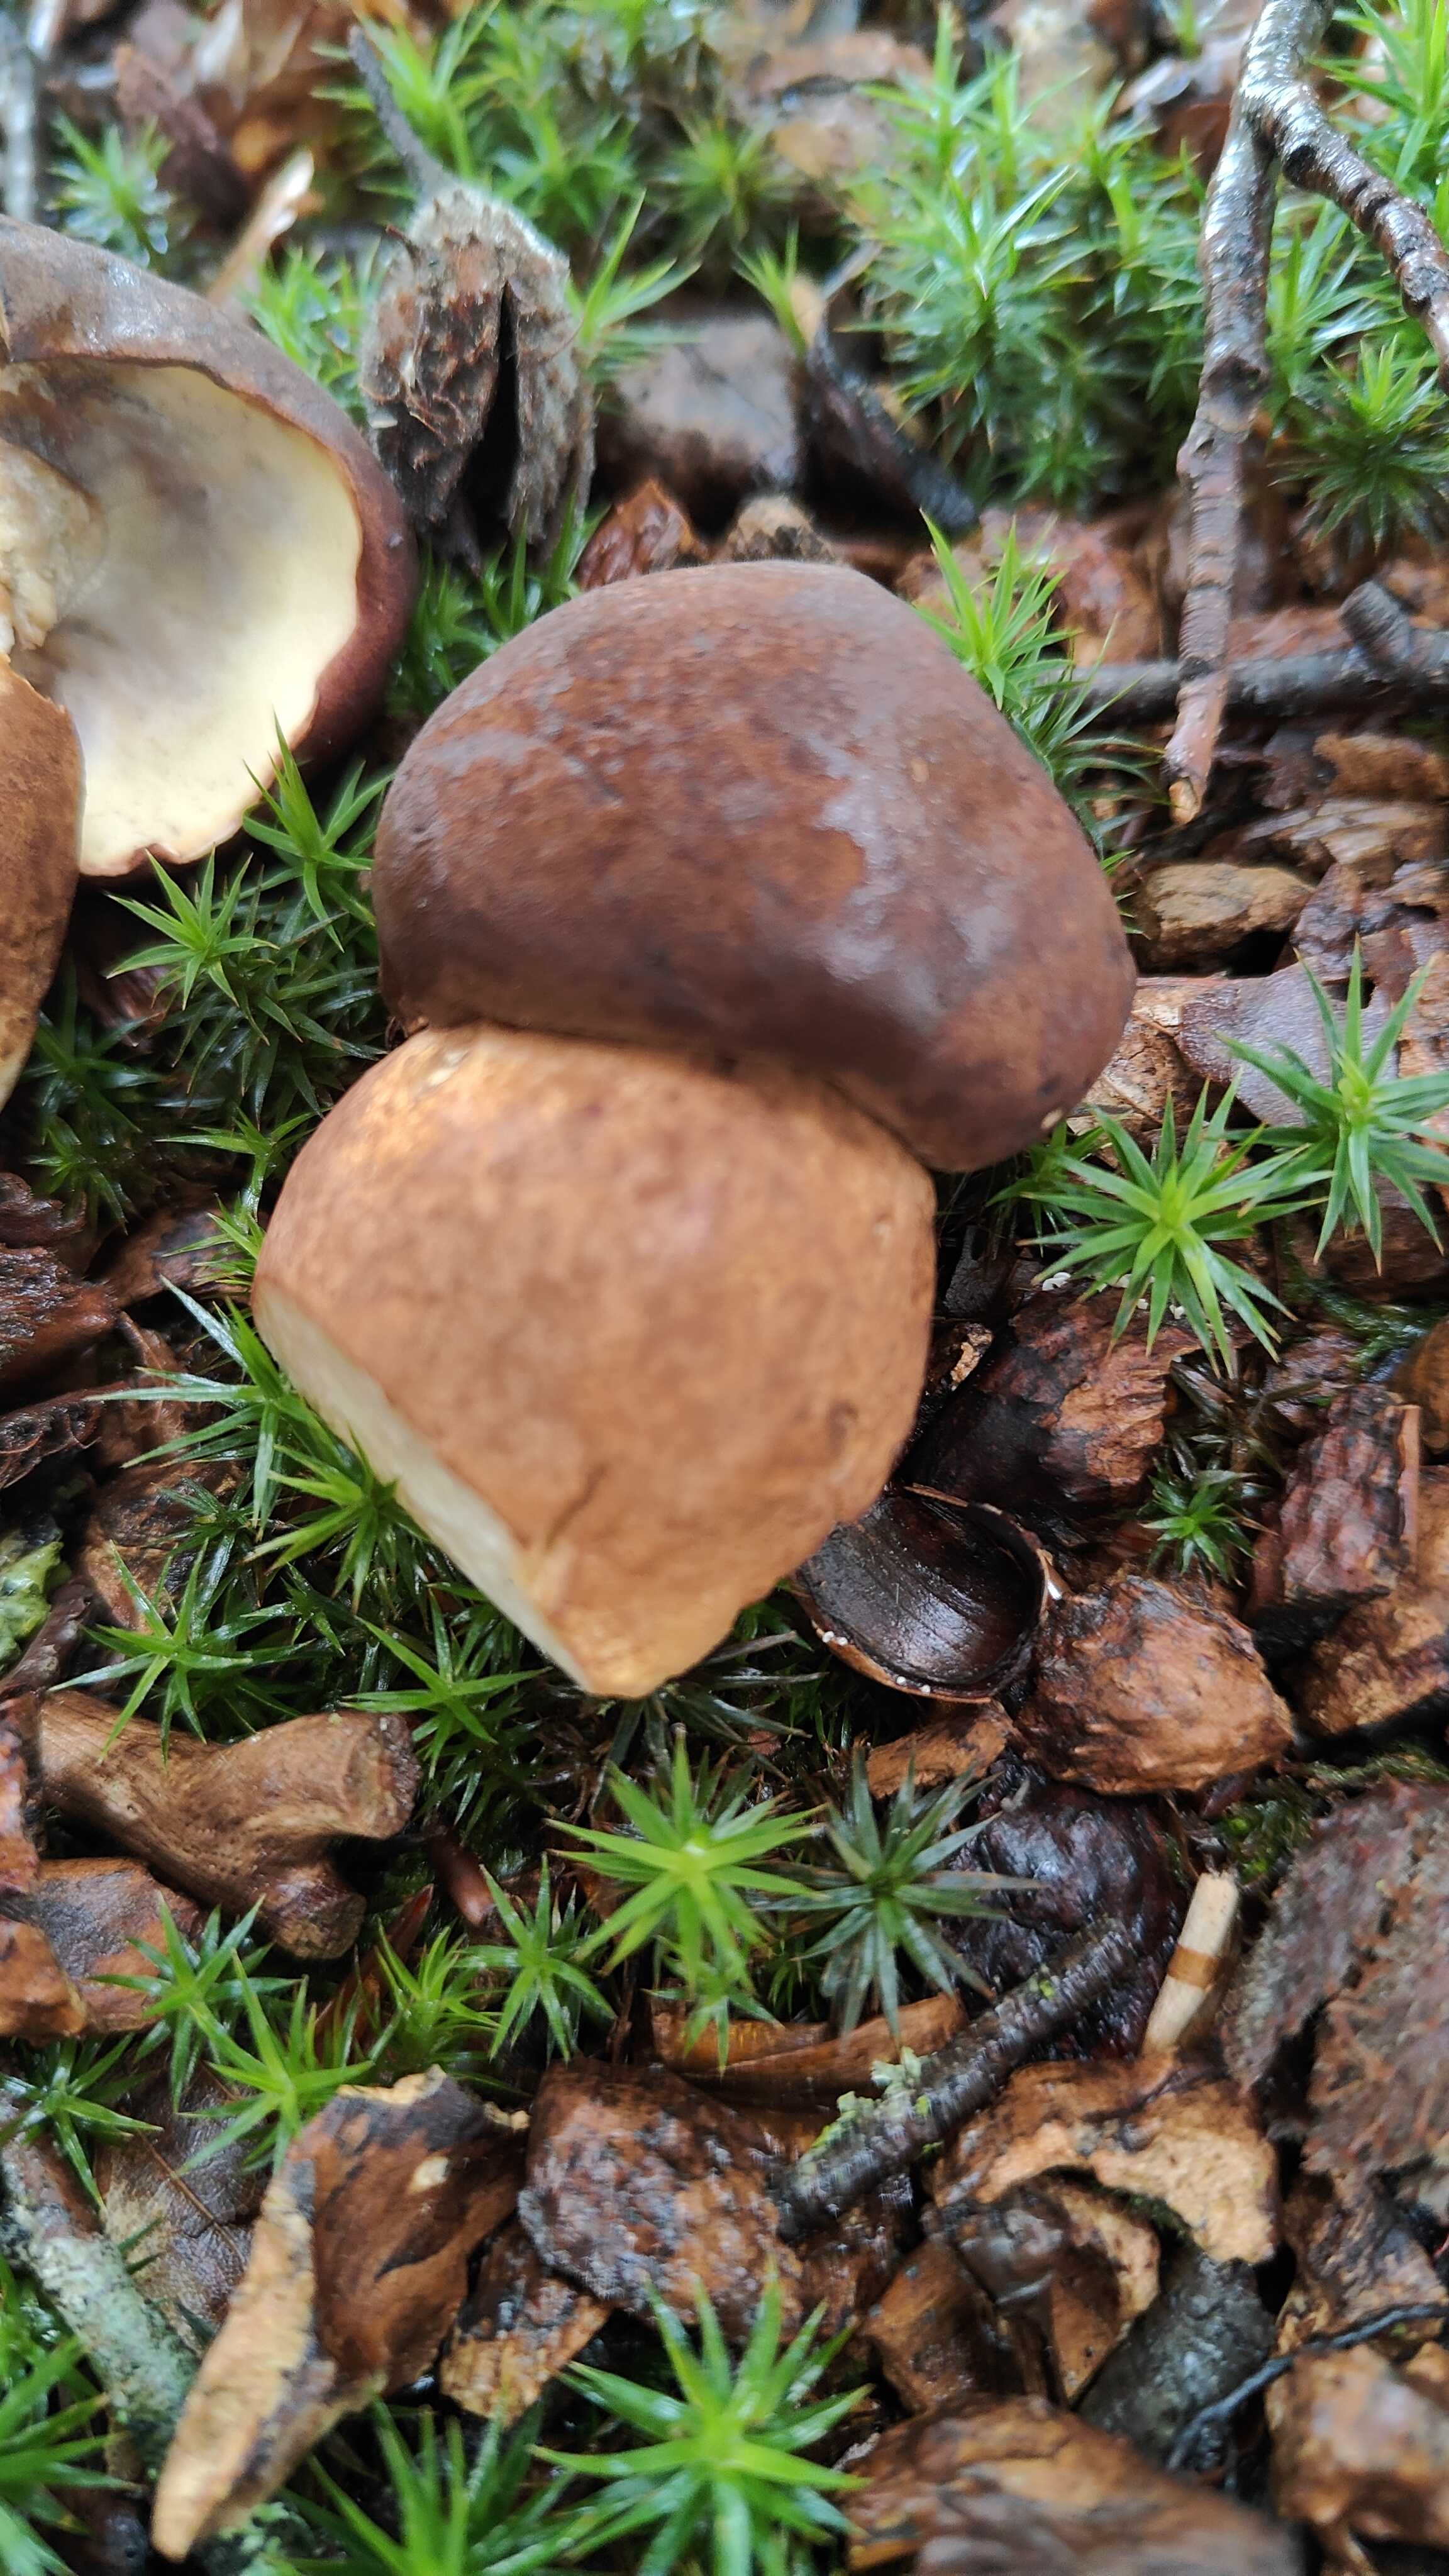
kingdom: Fungi
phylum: Basidiomycota
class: Agaricomycetes
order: Boletales
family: Boletaceae
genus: Imleria
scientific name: Imleria badia
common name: brunstokket rørhat
